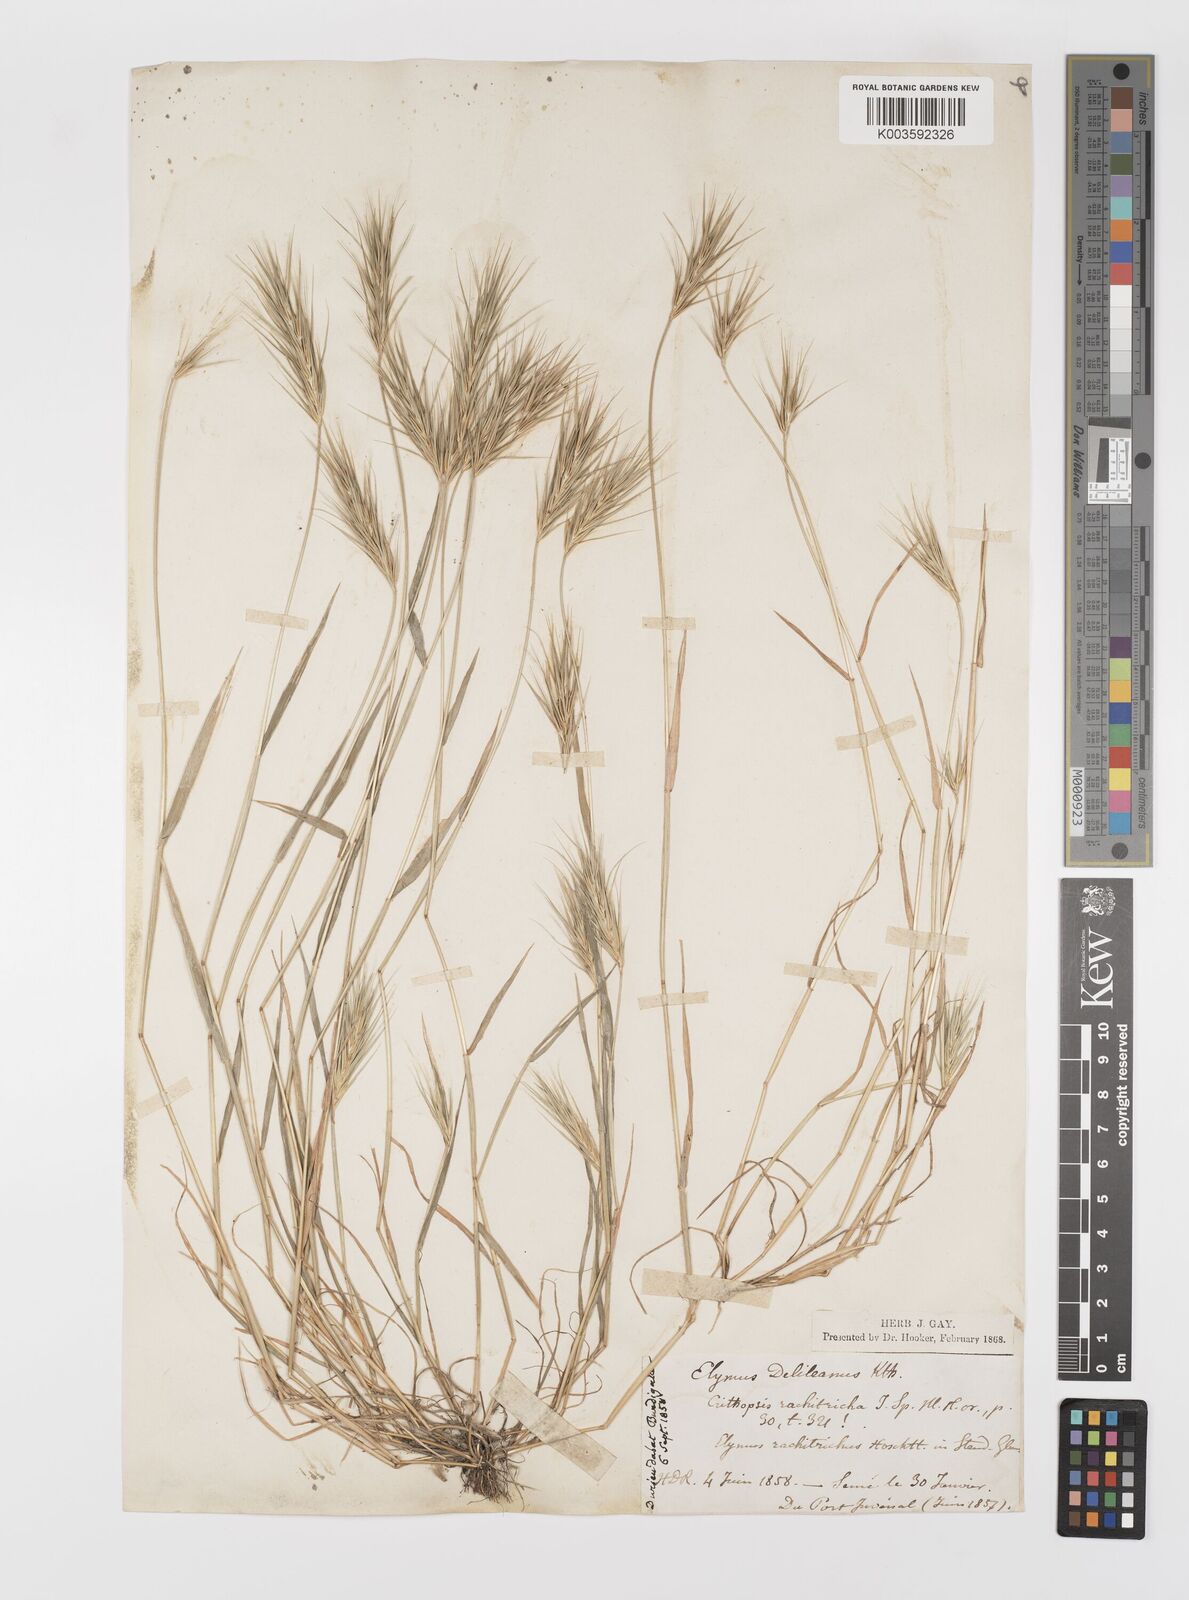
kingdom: Plantae
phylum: Tracheophyta
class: Liliopsida
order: Poales
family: Poaceae
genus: Crithopsis
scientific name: Crithopsis delileana
